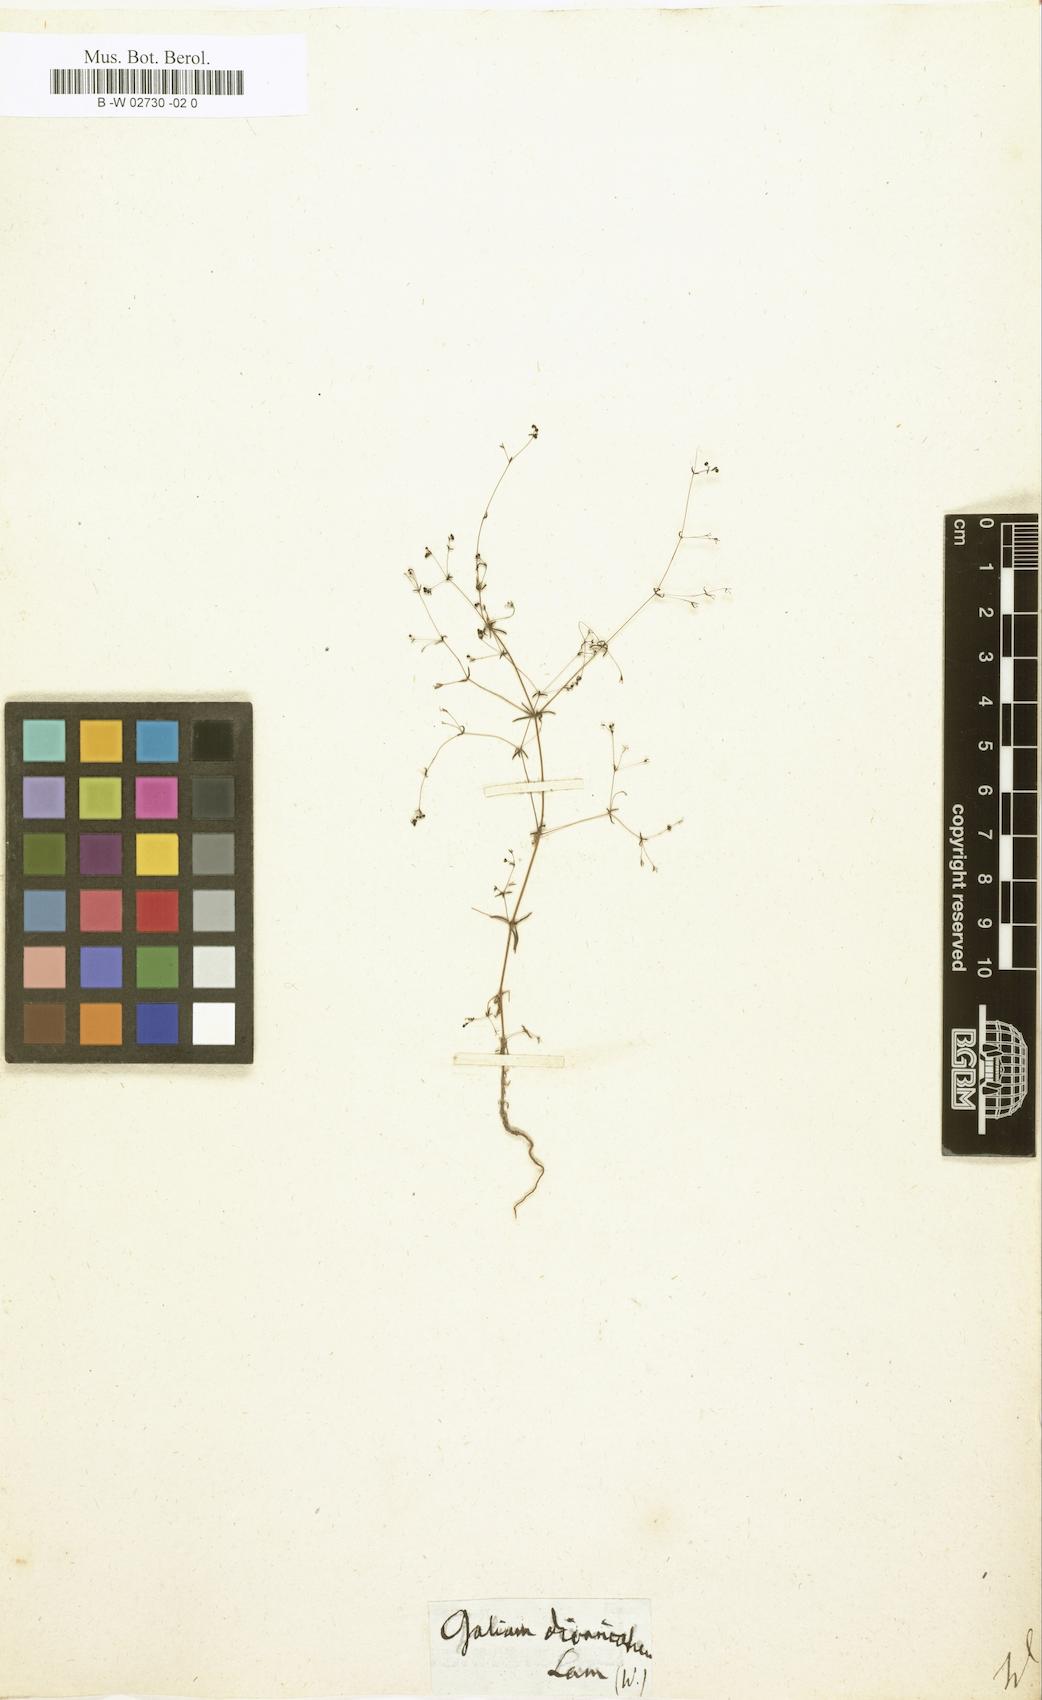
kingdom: Plantae
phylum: Tracheophyta
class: Magnoliopsida
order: Gentianales
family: Rubiaceae
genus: Galium
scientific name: Galium divaricatum
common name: Lamarck's bedstraw
